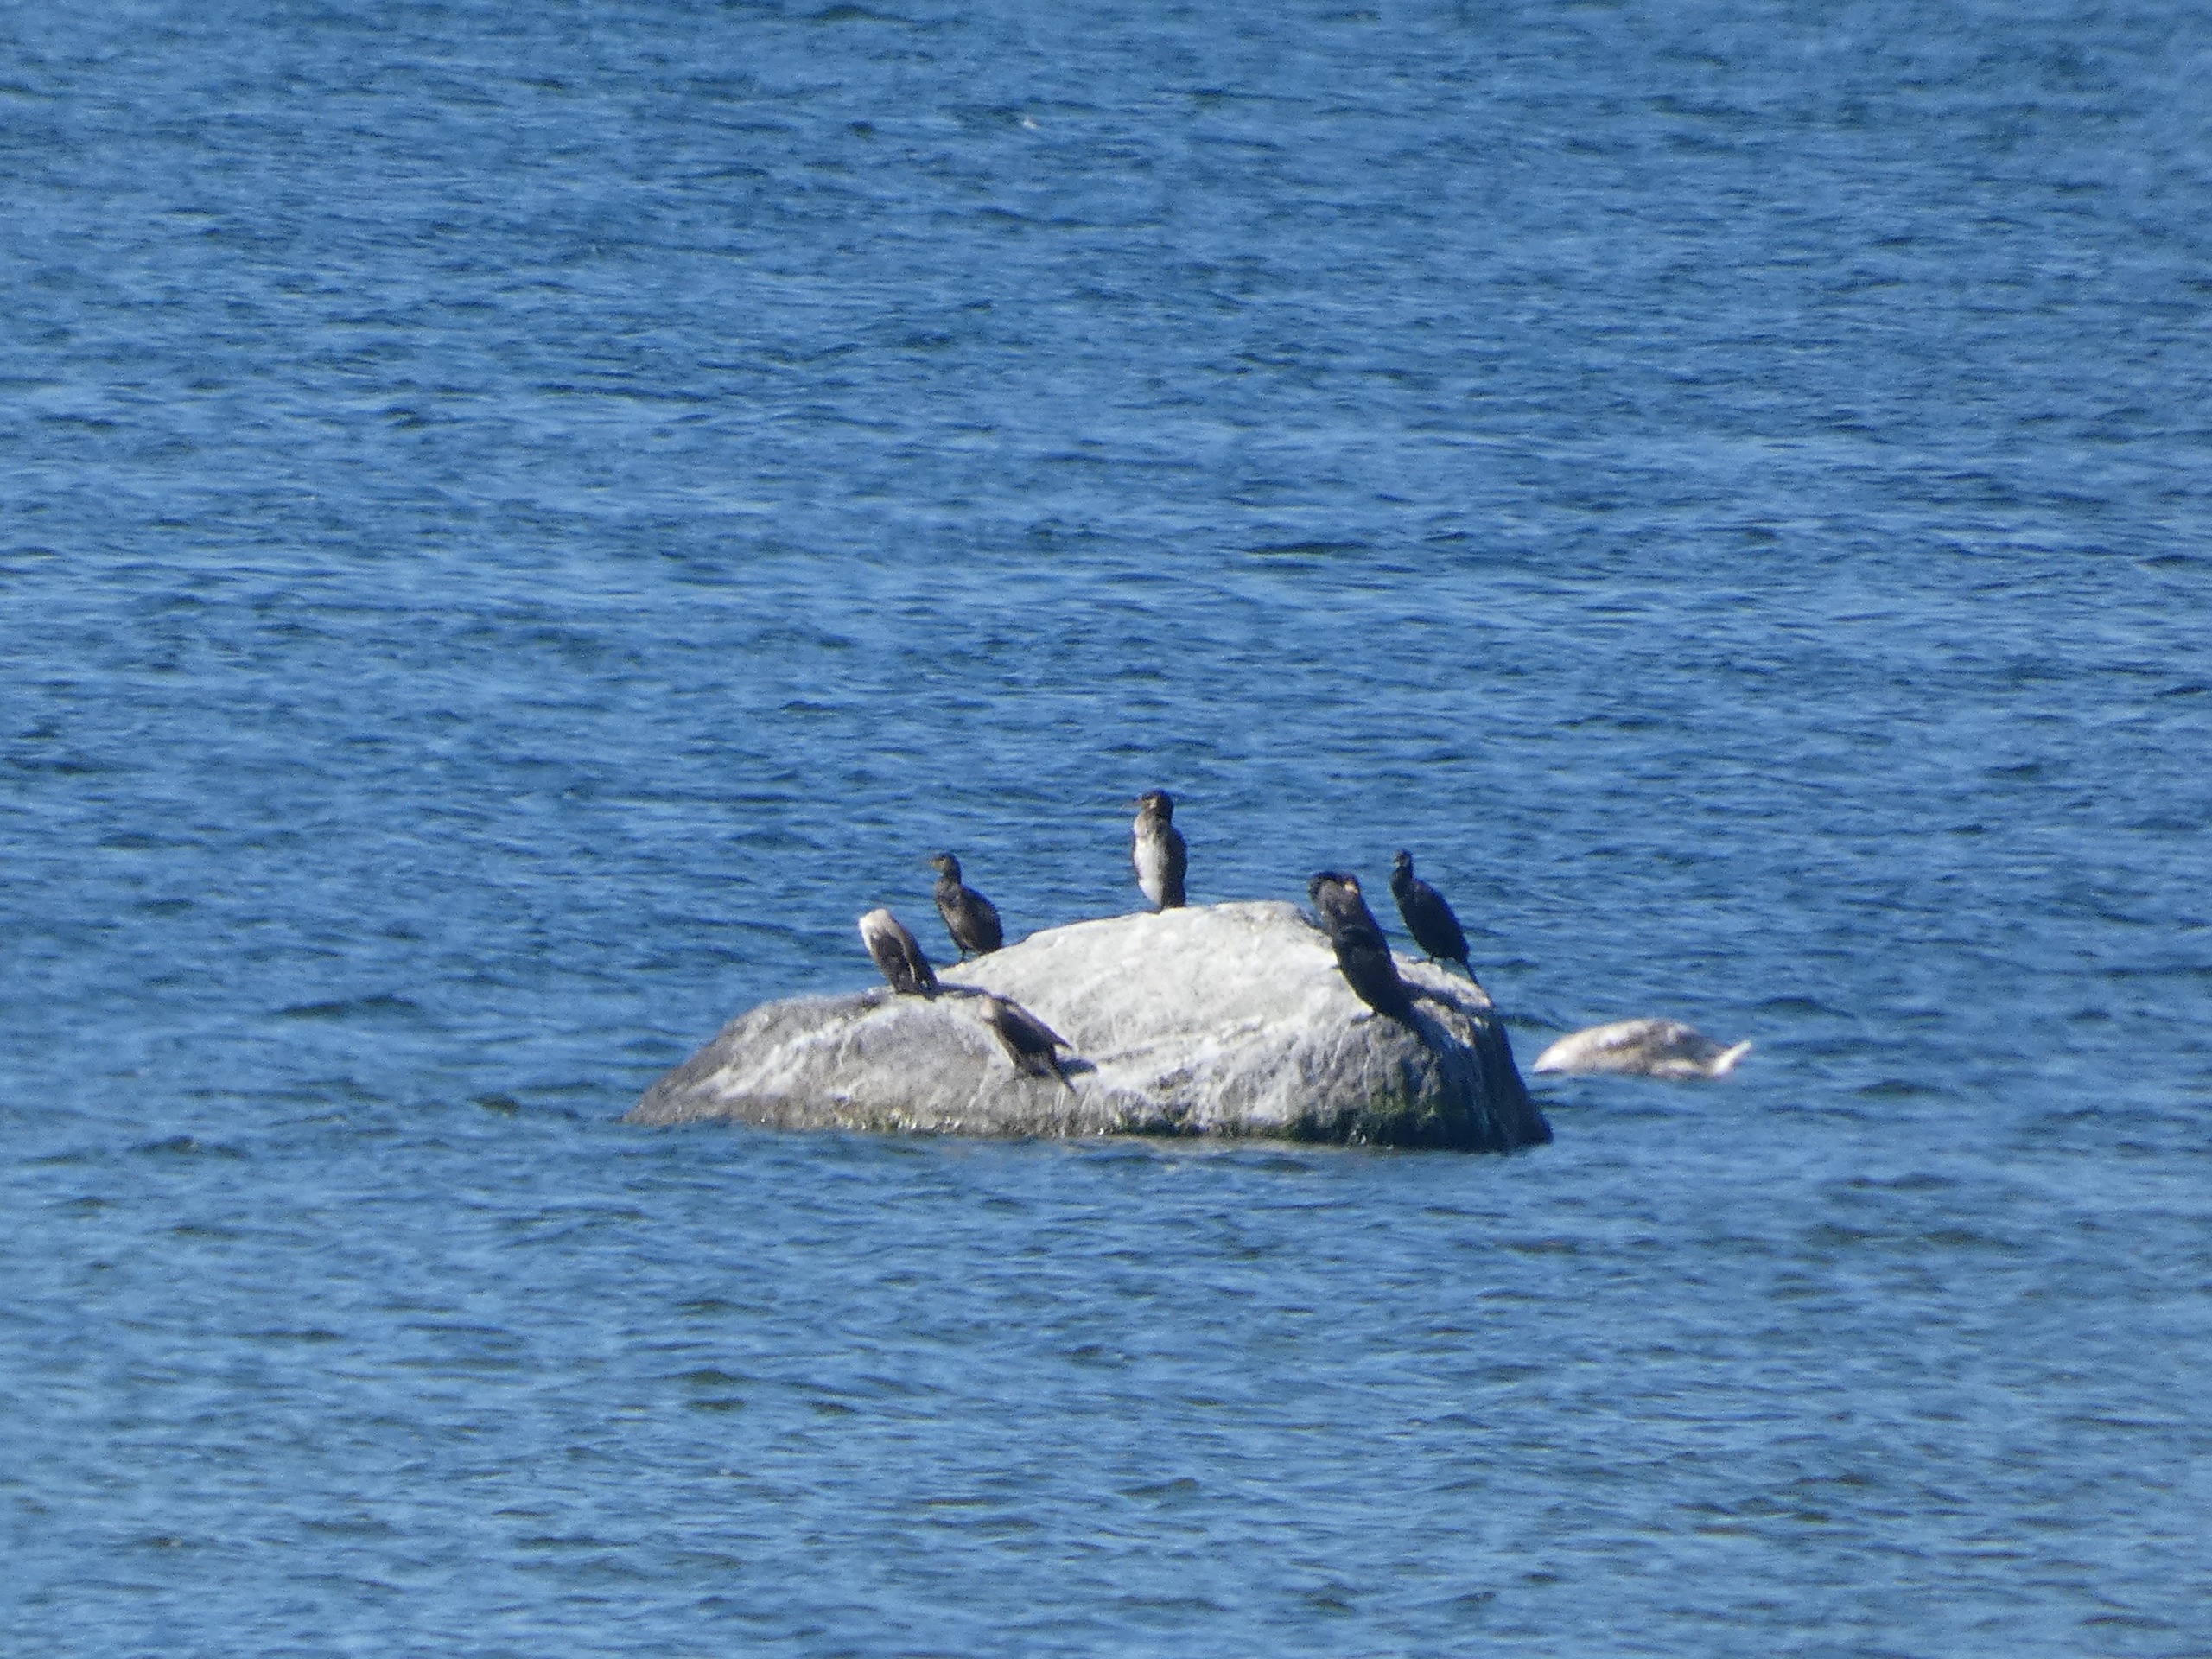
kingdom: Animalia
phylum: Chordata
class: Aves
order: Suliformes
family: Phalacrocoracidae
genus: Phalacrocorax
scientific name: Phalacrocorax carbo
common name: Skarv
